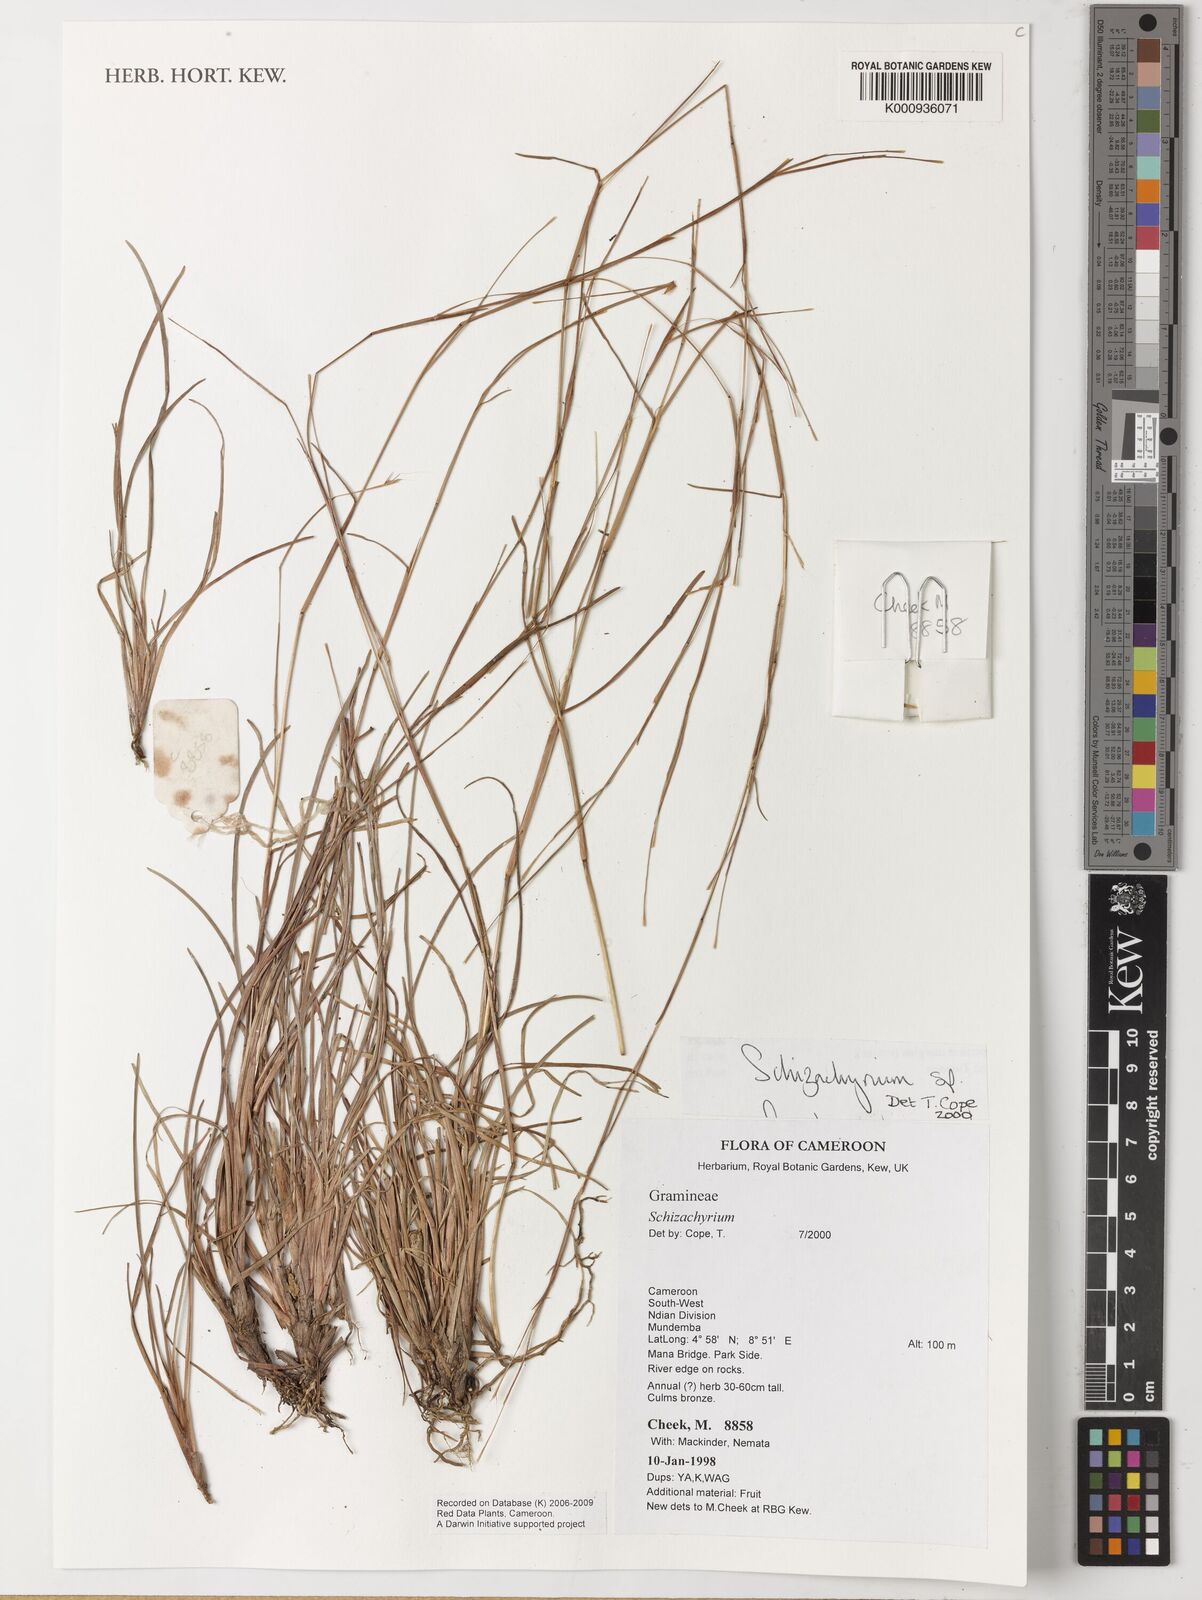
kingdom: Plantae
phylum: Tracheophyta
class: Liliopsida
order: Poales
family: Poaceae
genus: Schizachyrium
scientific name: Schizachyrium
